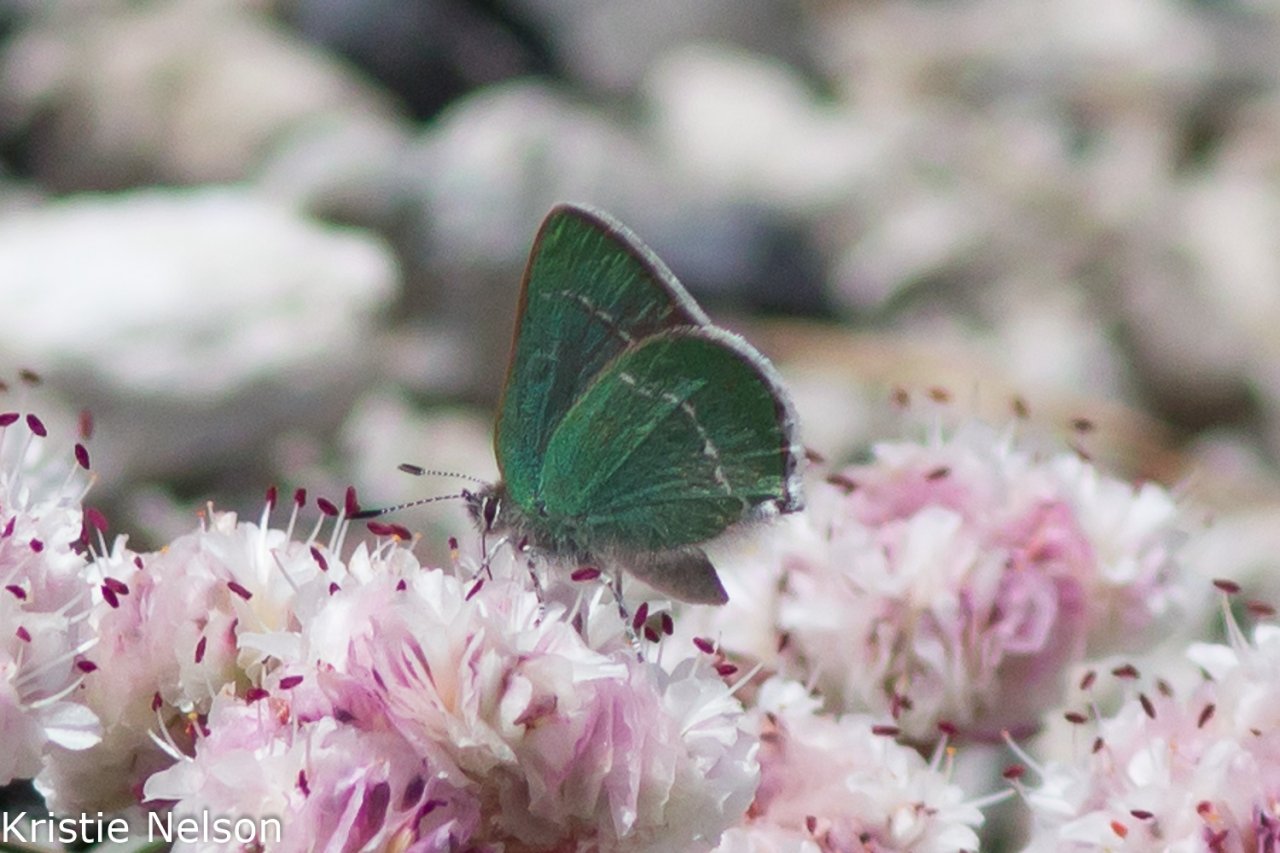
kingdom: Animalia
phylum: Arthropoda
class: Insecta
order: Lepidoptera
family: Lycaenidae
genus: Thecla
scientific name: Thecla sheridanii
